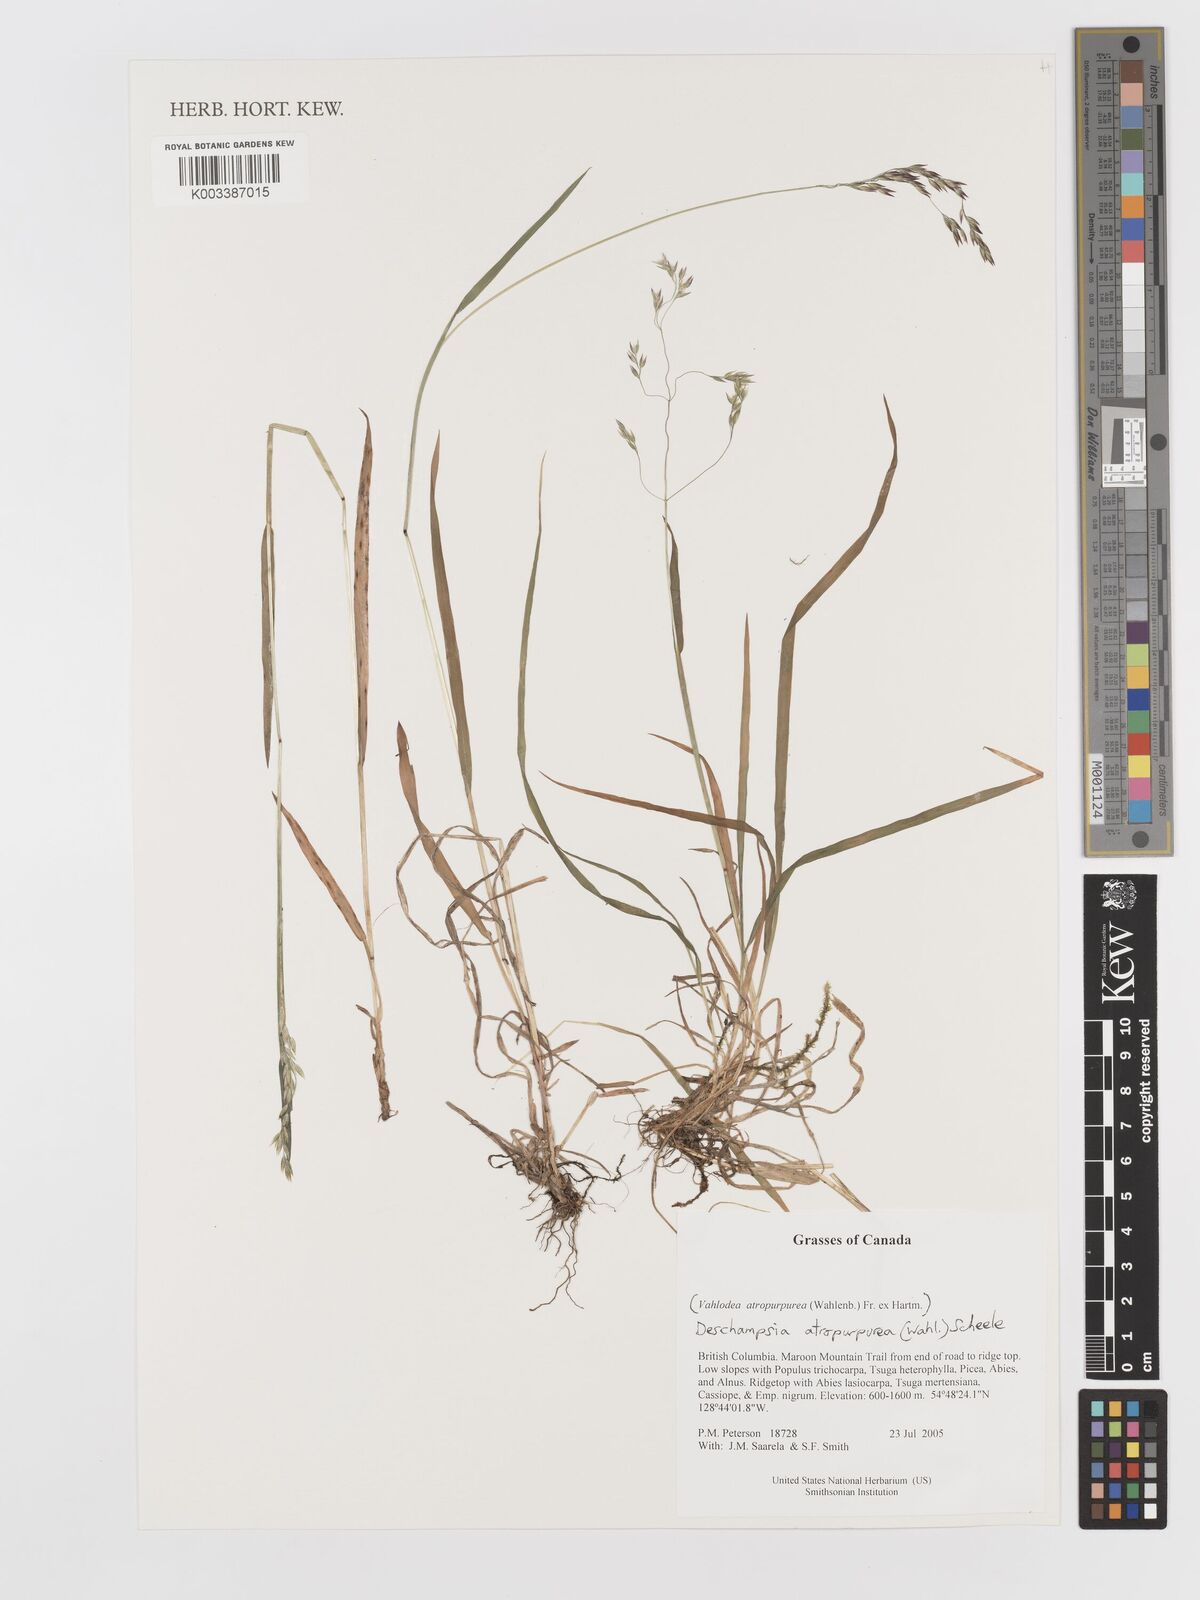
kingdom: Plantae
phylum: Tracheophyta
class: Liliopsida
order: Poales
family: Poaceae
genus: Vahlodea
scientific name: Vahlodea atropurpurea
